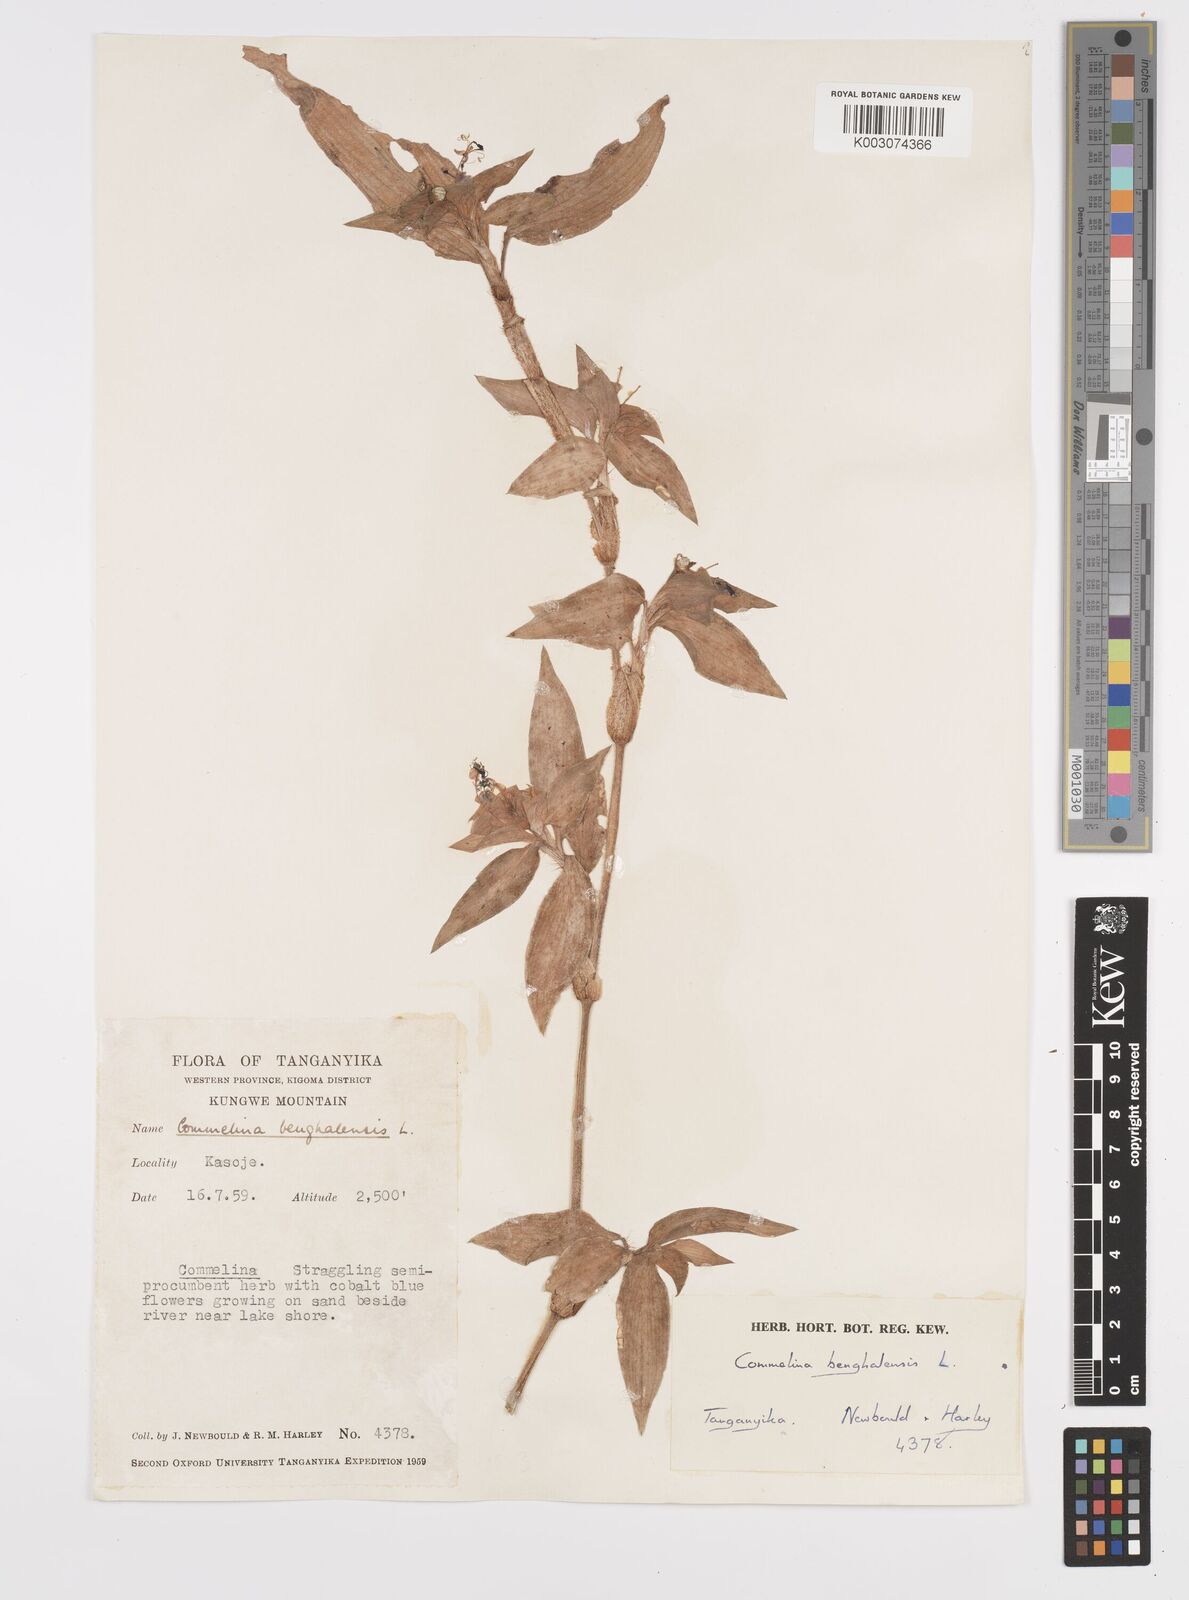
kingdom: Plantae
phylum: Tracheophyta
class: Liliopsida
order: Commelinales
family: Commelinaceae
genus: Commelina
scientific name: Commelina benghalensis
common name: Jio
